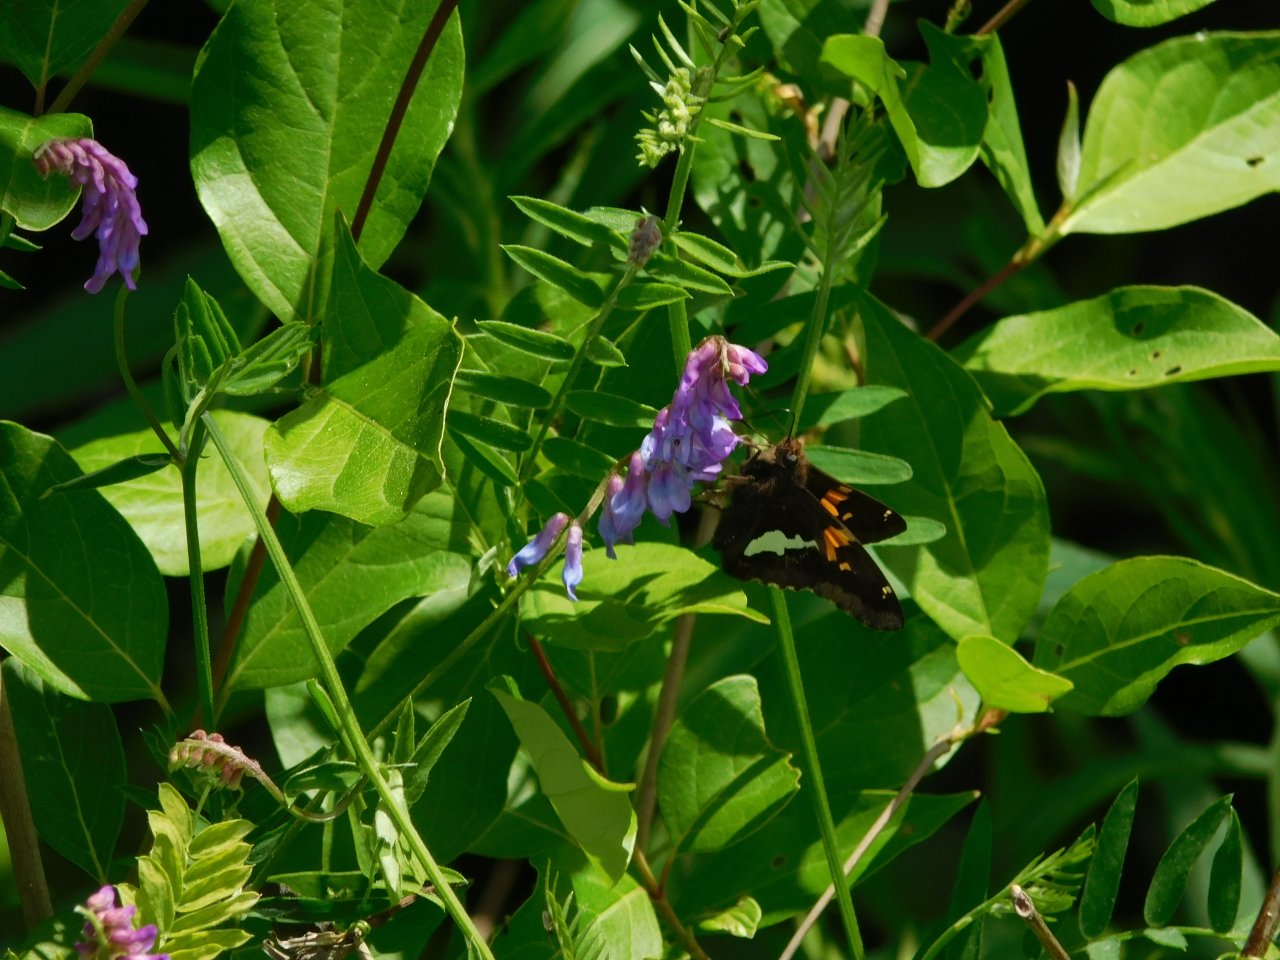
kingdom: Animalia
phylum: Arthropoda
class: Insecta
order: Lepidoptera
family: Hesperiidae
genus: Epargyreus
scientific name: Epargyreus clarus
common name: Silver-spotted Skipper
